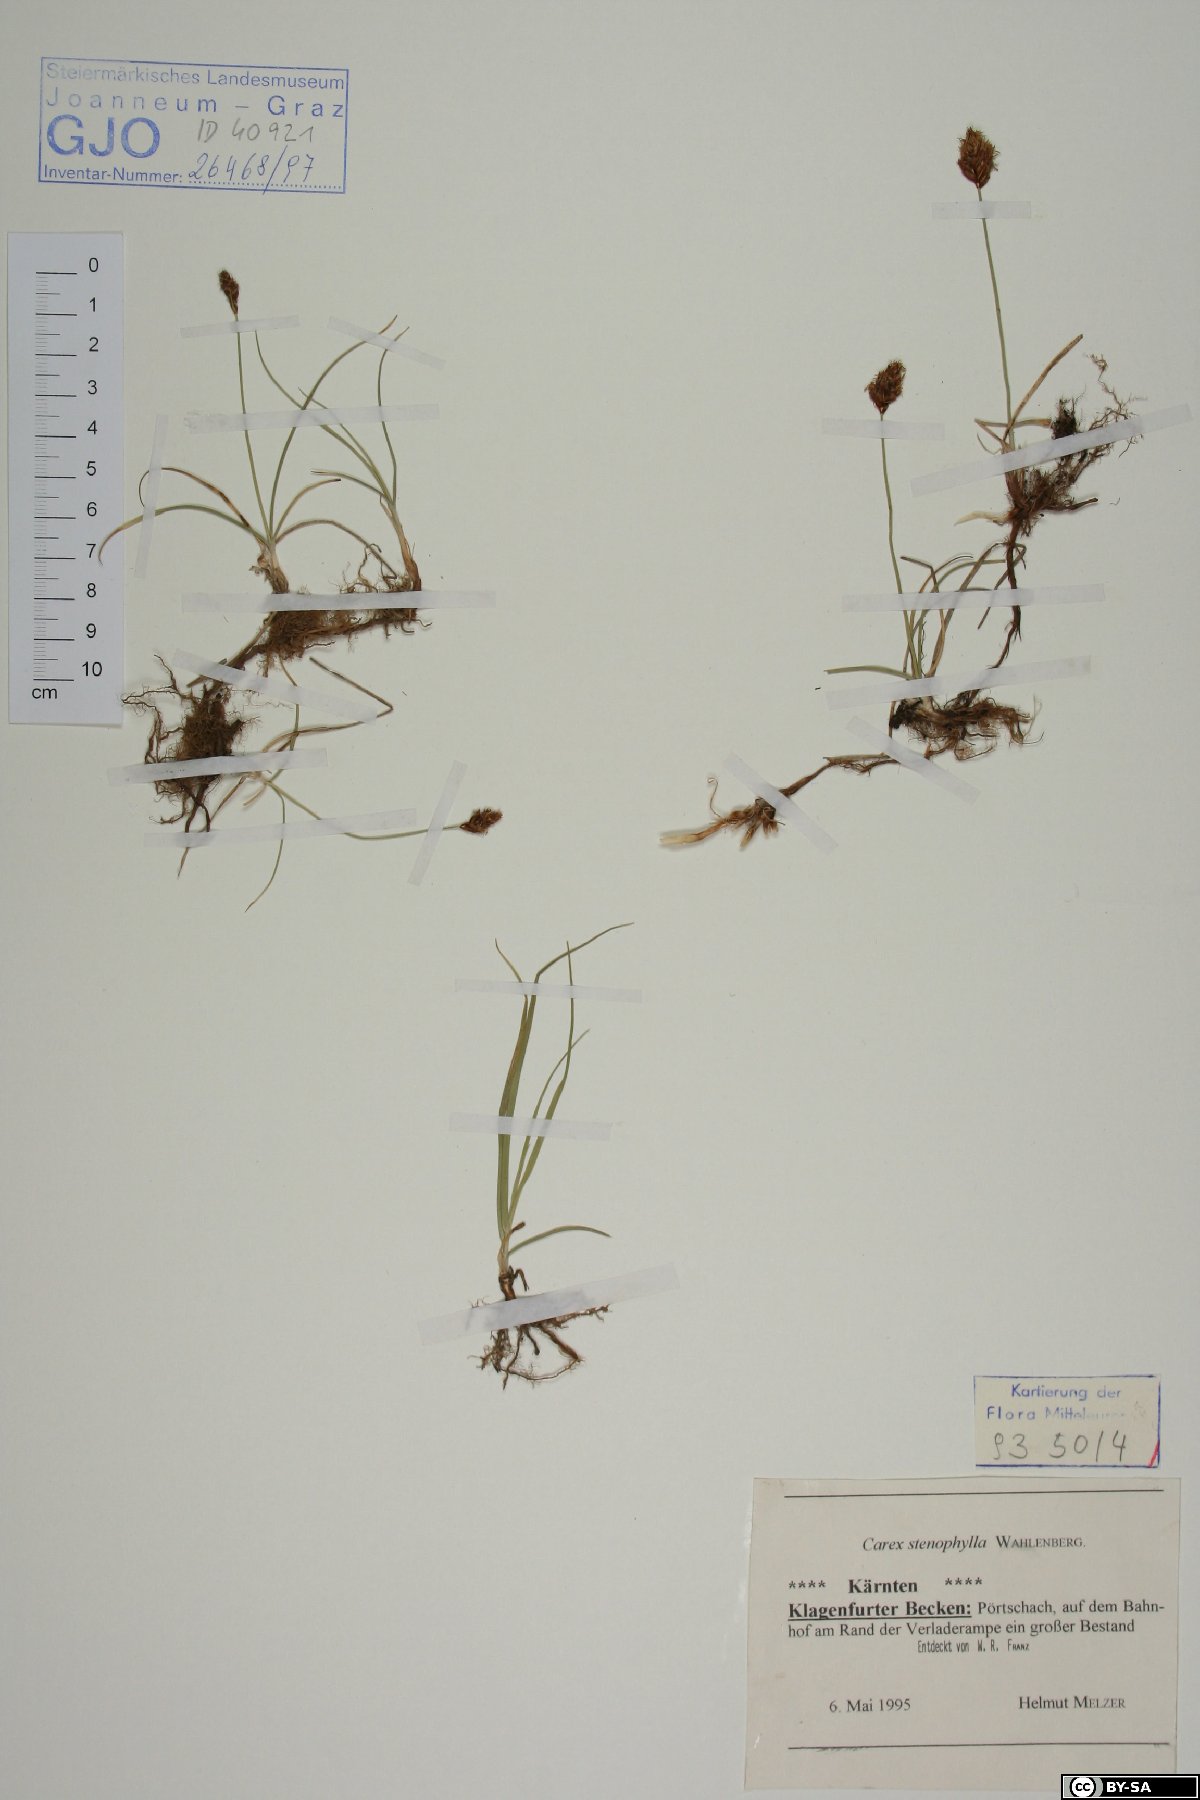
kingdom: Plantae
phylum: Tracheophyta
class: Liliopsida
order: Poales
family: Cyperaceae
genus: Carex
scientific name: Carex stenophylla
